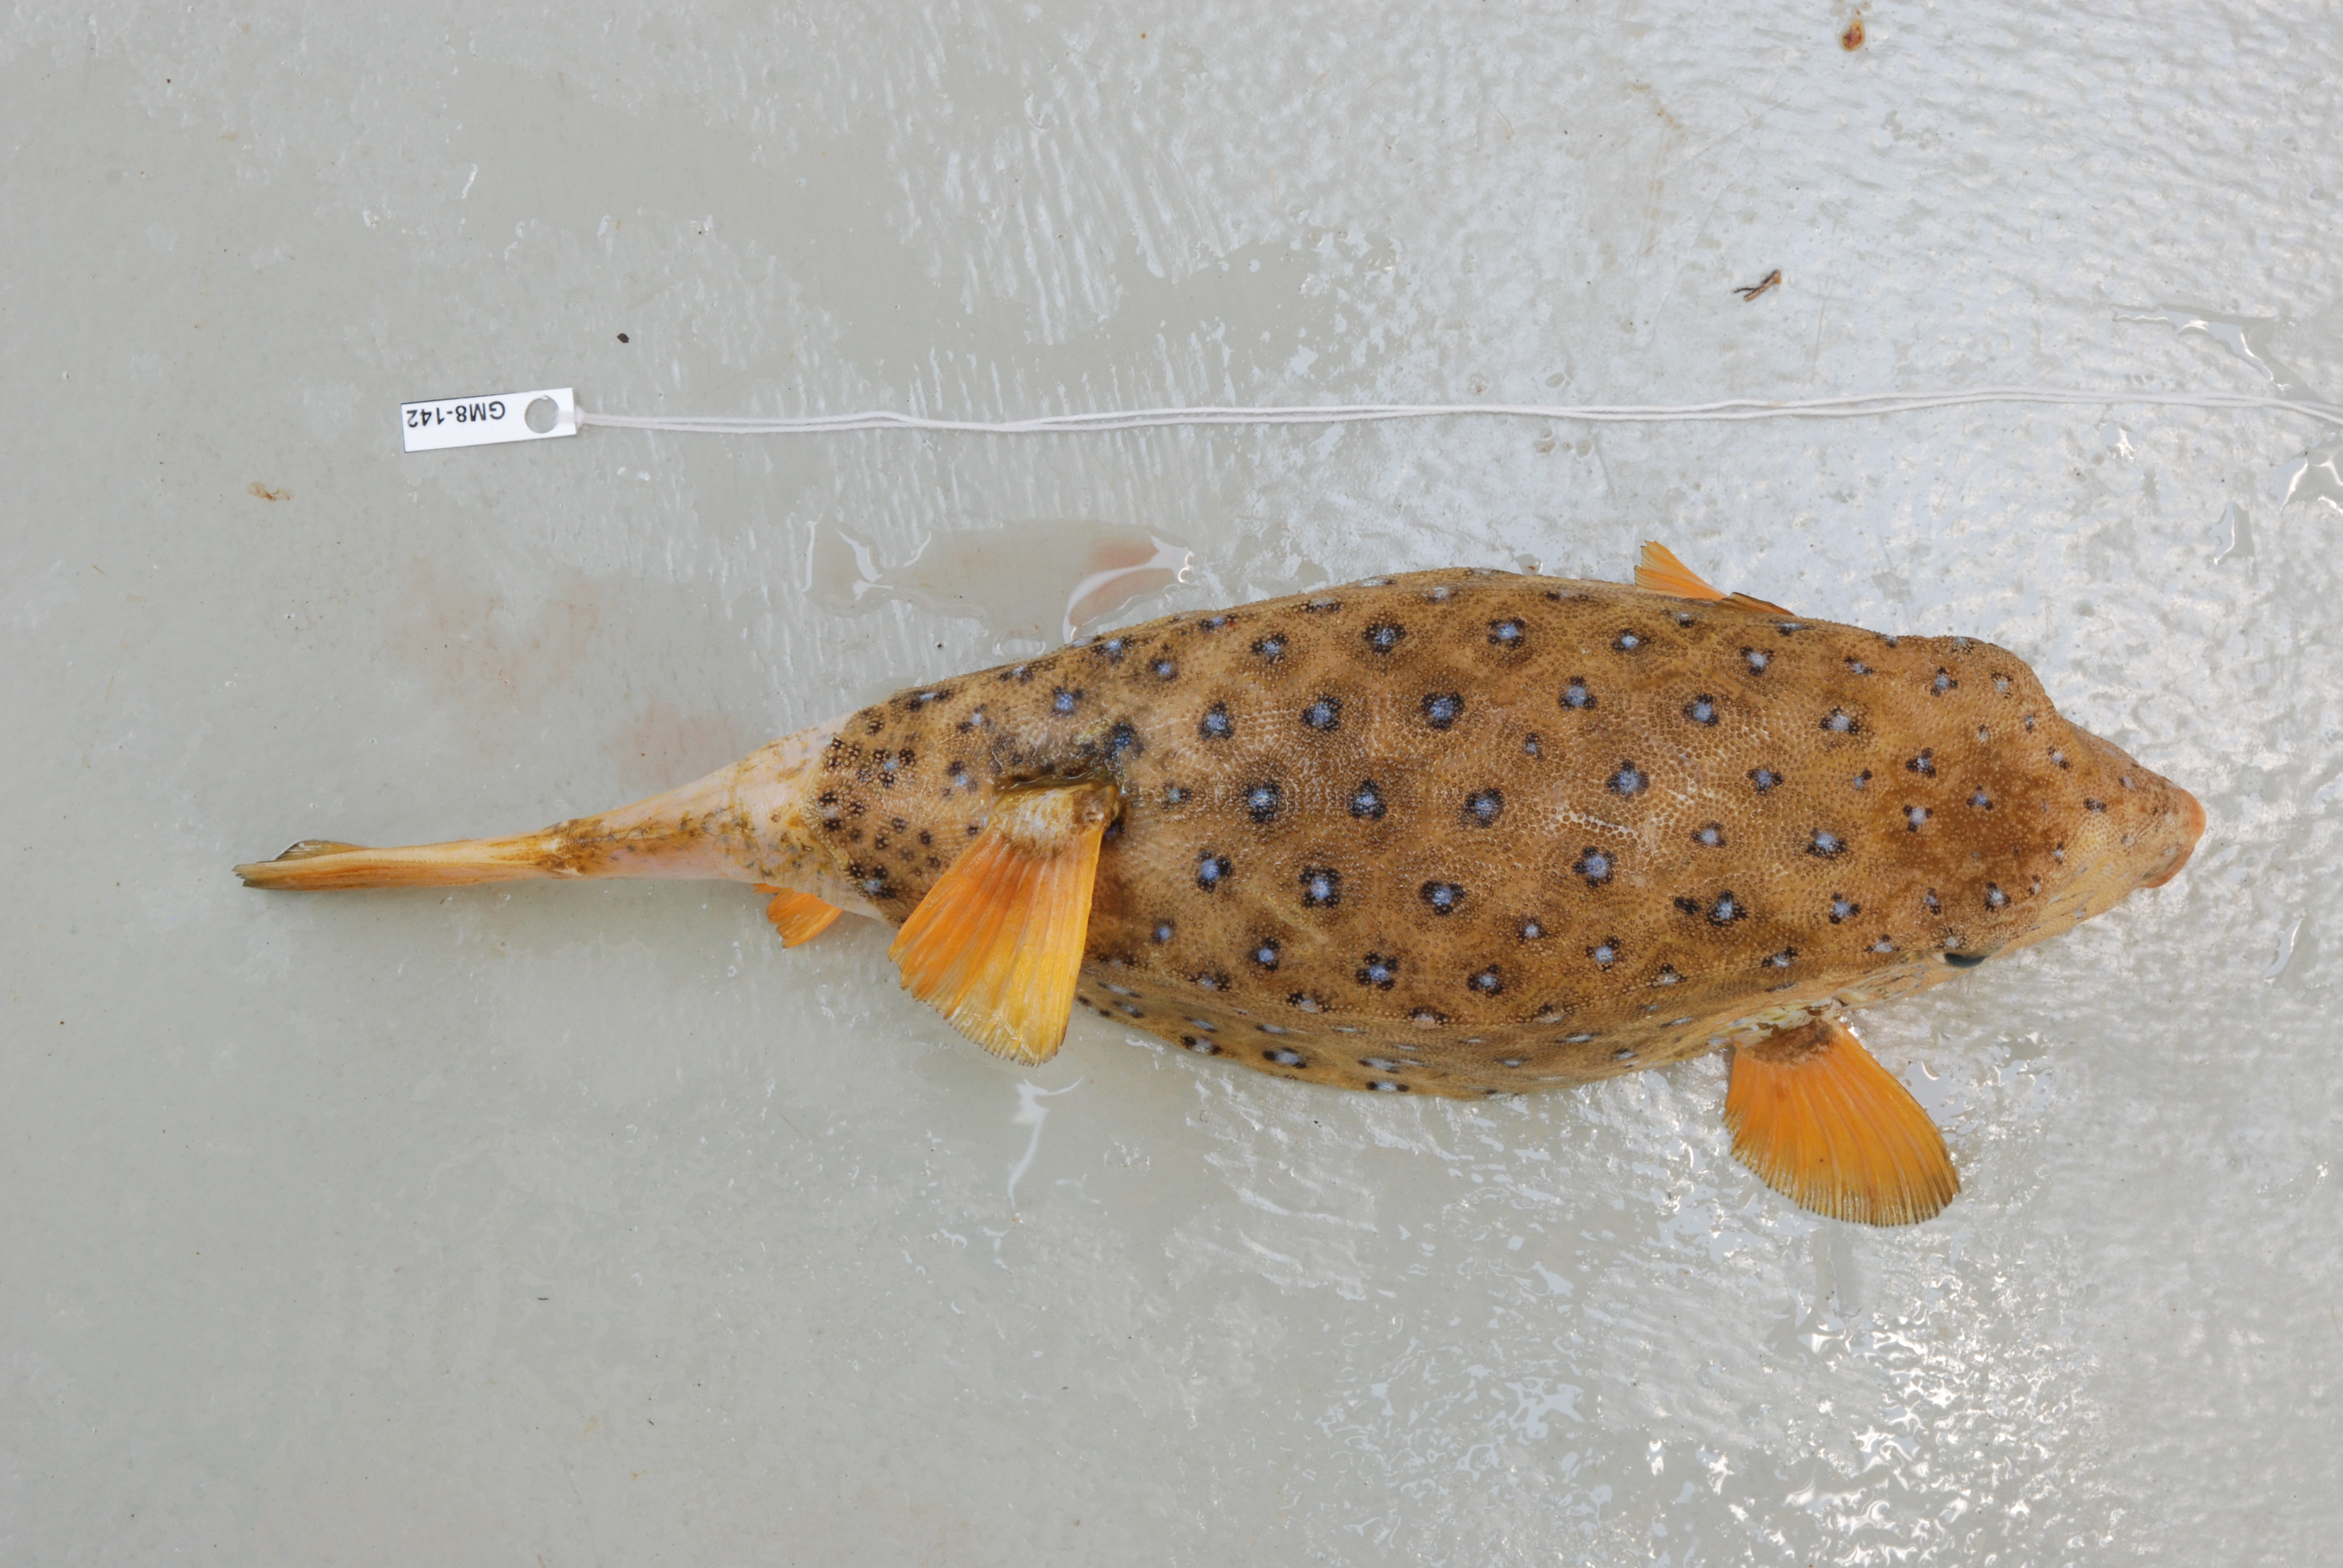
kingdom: Animalia
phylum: Chordata
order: Tetraodontiformes
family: Ostraciidae
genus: Ostracion
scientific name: Ostracion cubicus
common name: Cube trunkfish
